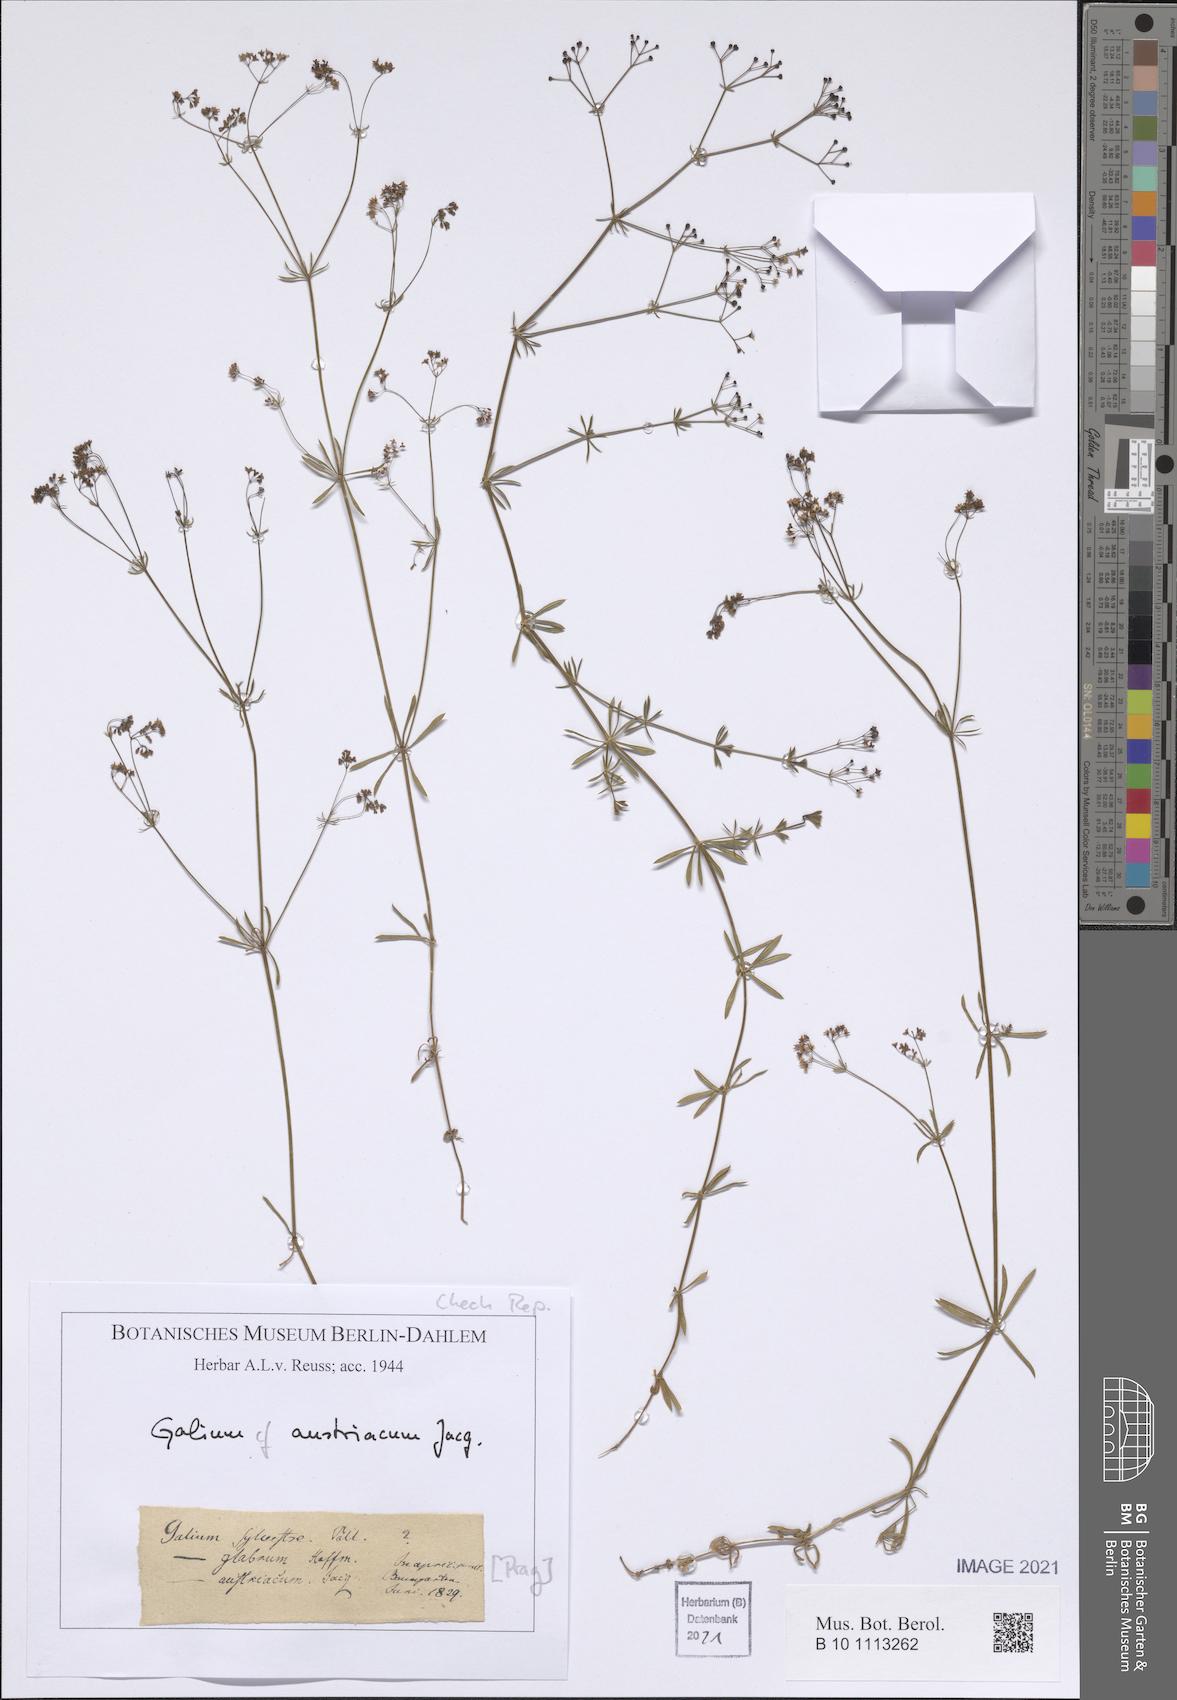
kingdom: Plantae
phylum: Tracheophyta
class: Magnoliopsida
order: Gentianales
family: Rubiaceae
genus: Galium
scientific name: Galium austriacum
